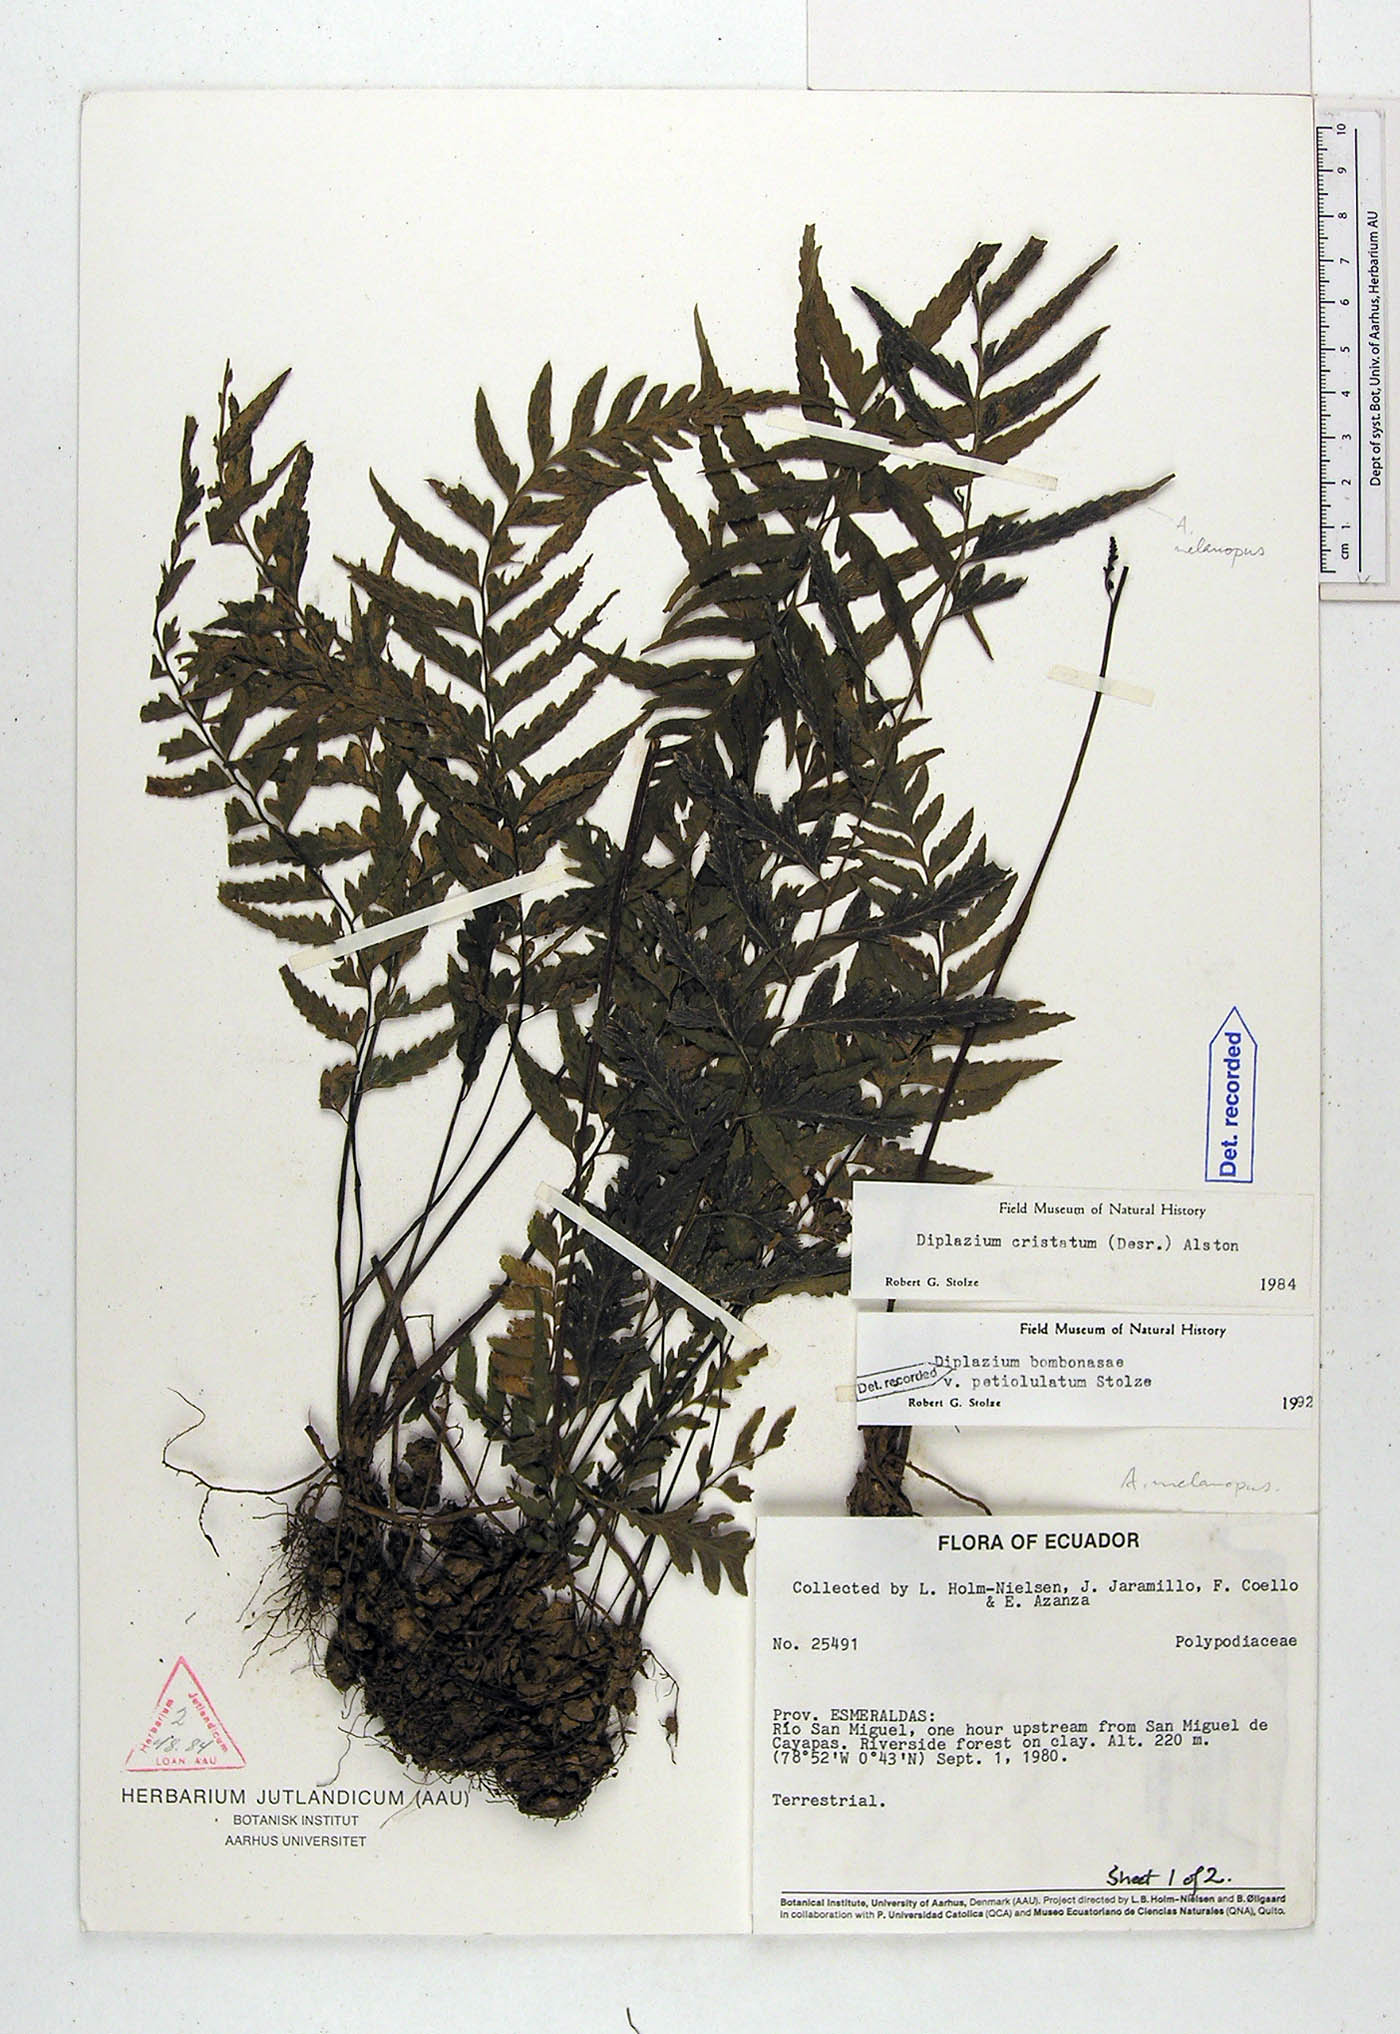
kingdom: Plantae
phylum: Tracheophyta
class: Polypodiopsida
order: Polypodiales
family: Athyriaceae
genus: Diplazium
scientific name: Diplazium bombonasae
